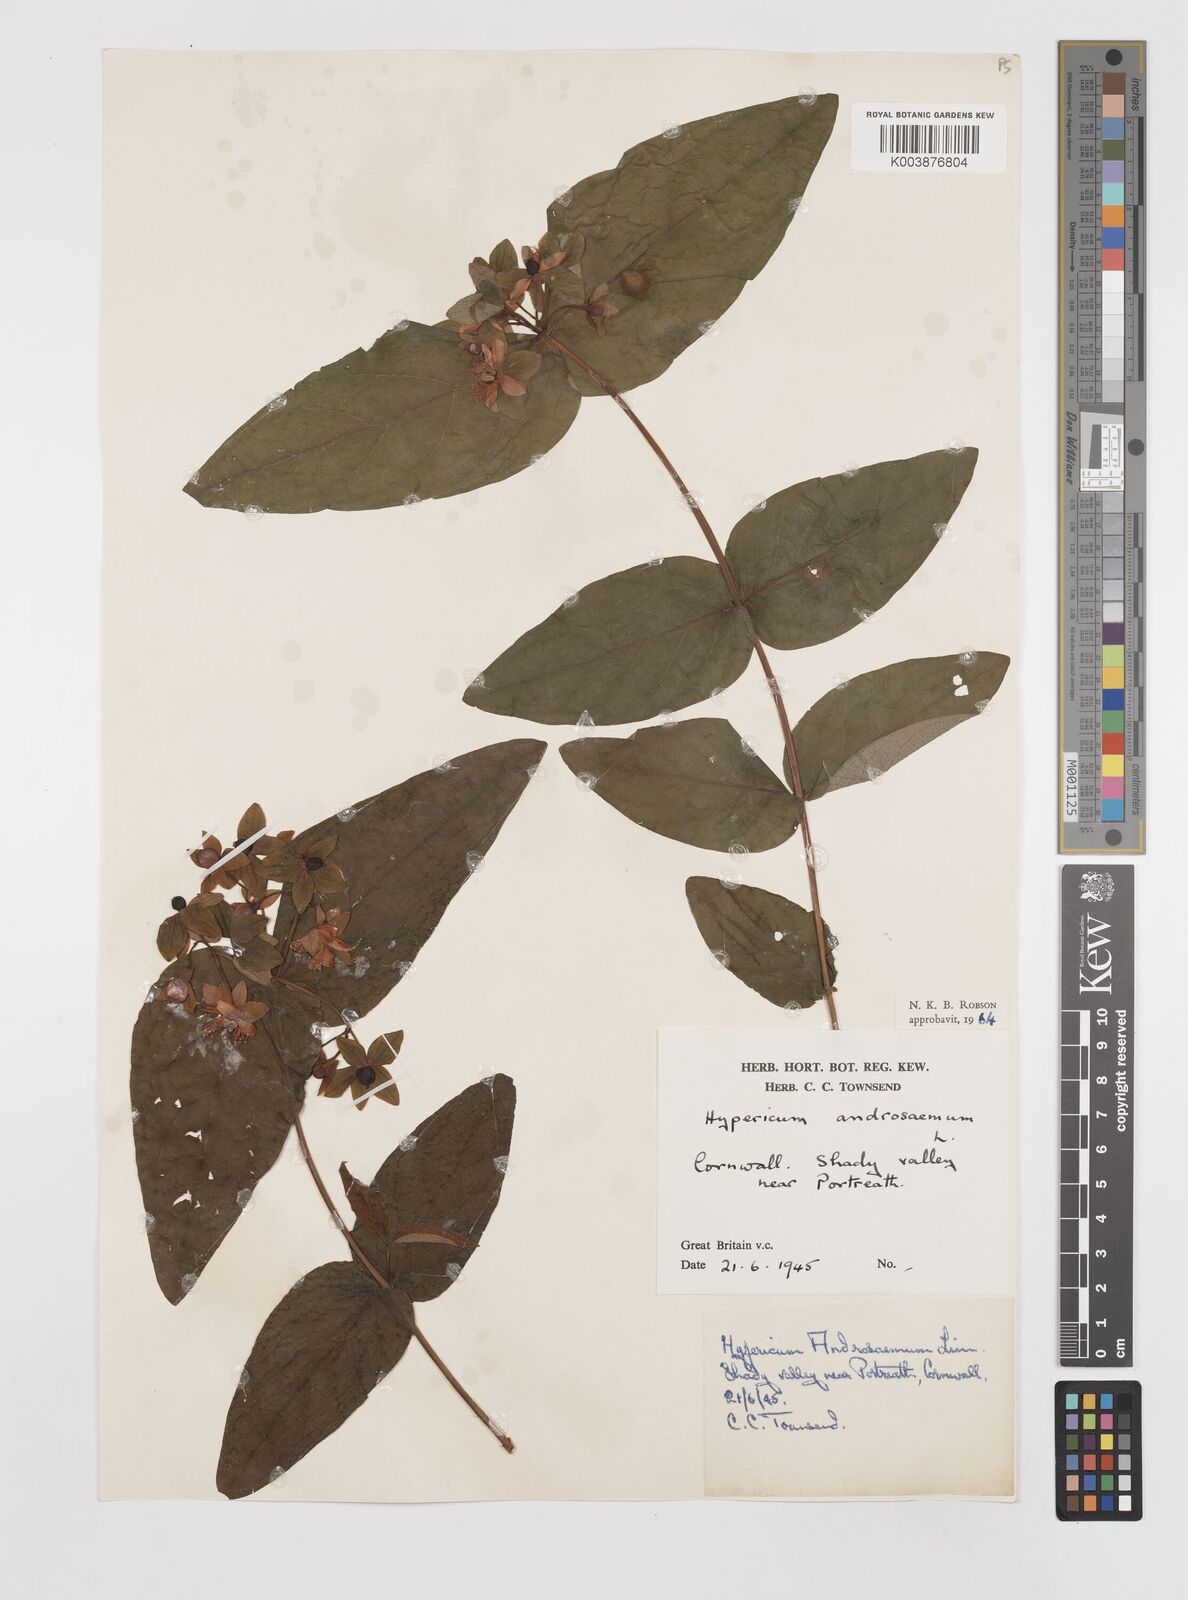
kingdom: Plantae
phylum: Tracheophyta
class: Magnoliopsida
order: Malpighiales
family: Hypericaceae
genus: Hypericum
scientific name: Hypericum androsaemum
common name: Sweet-amber
